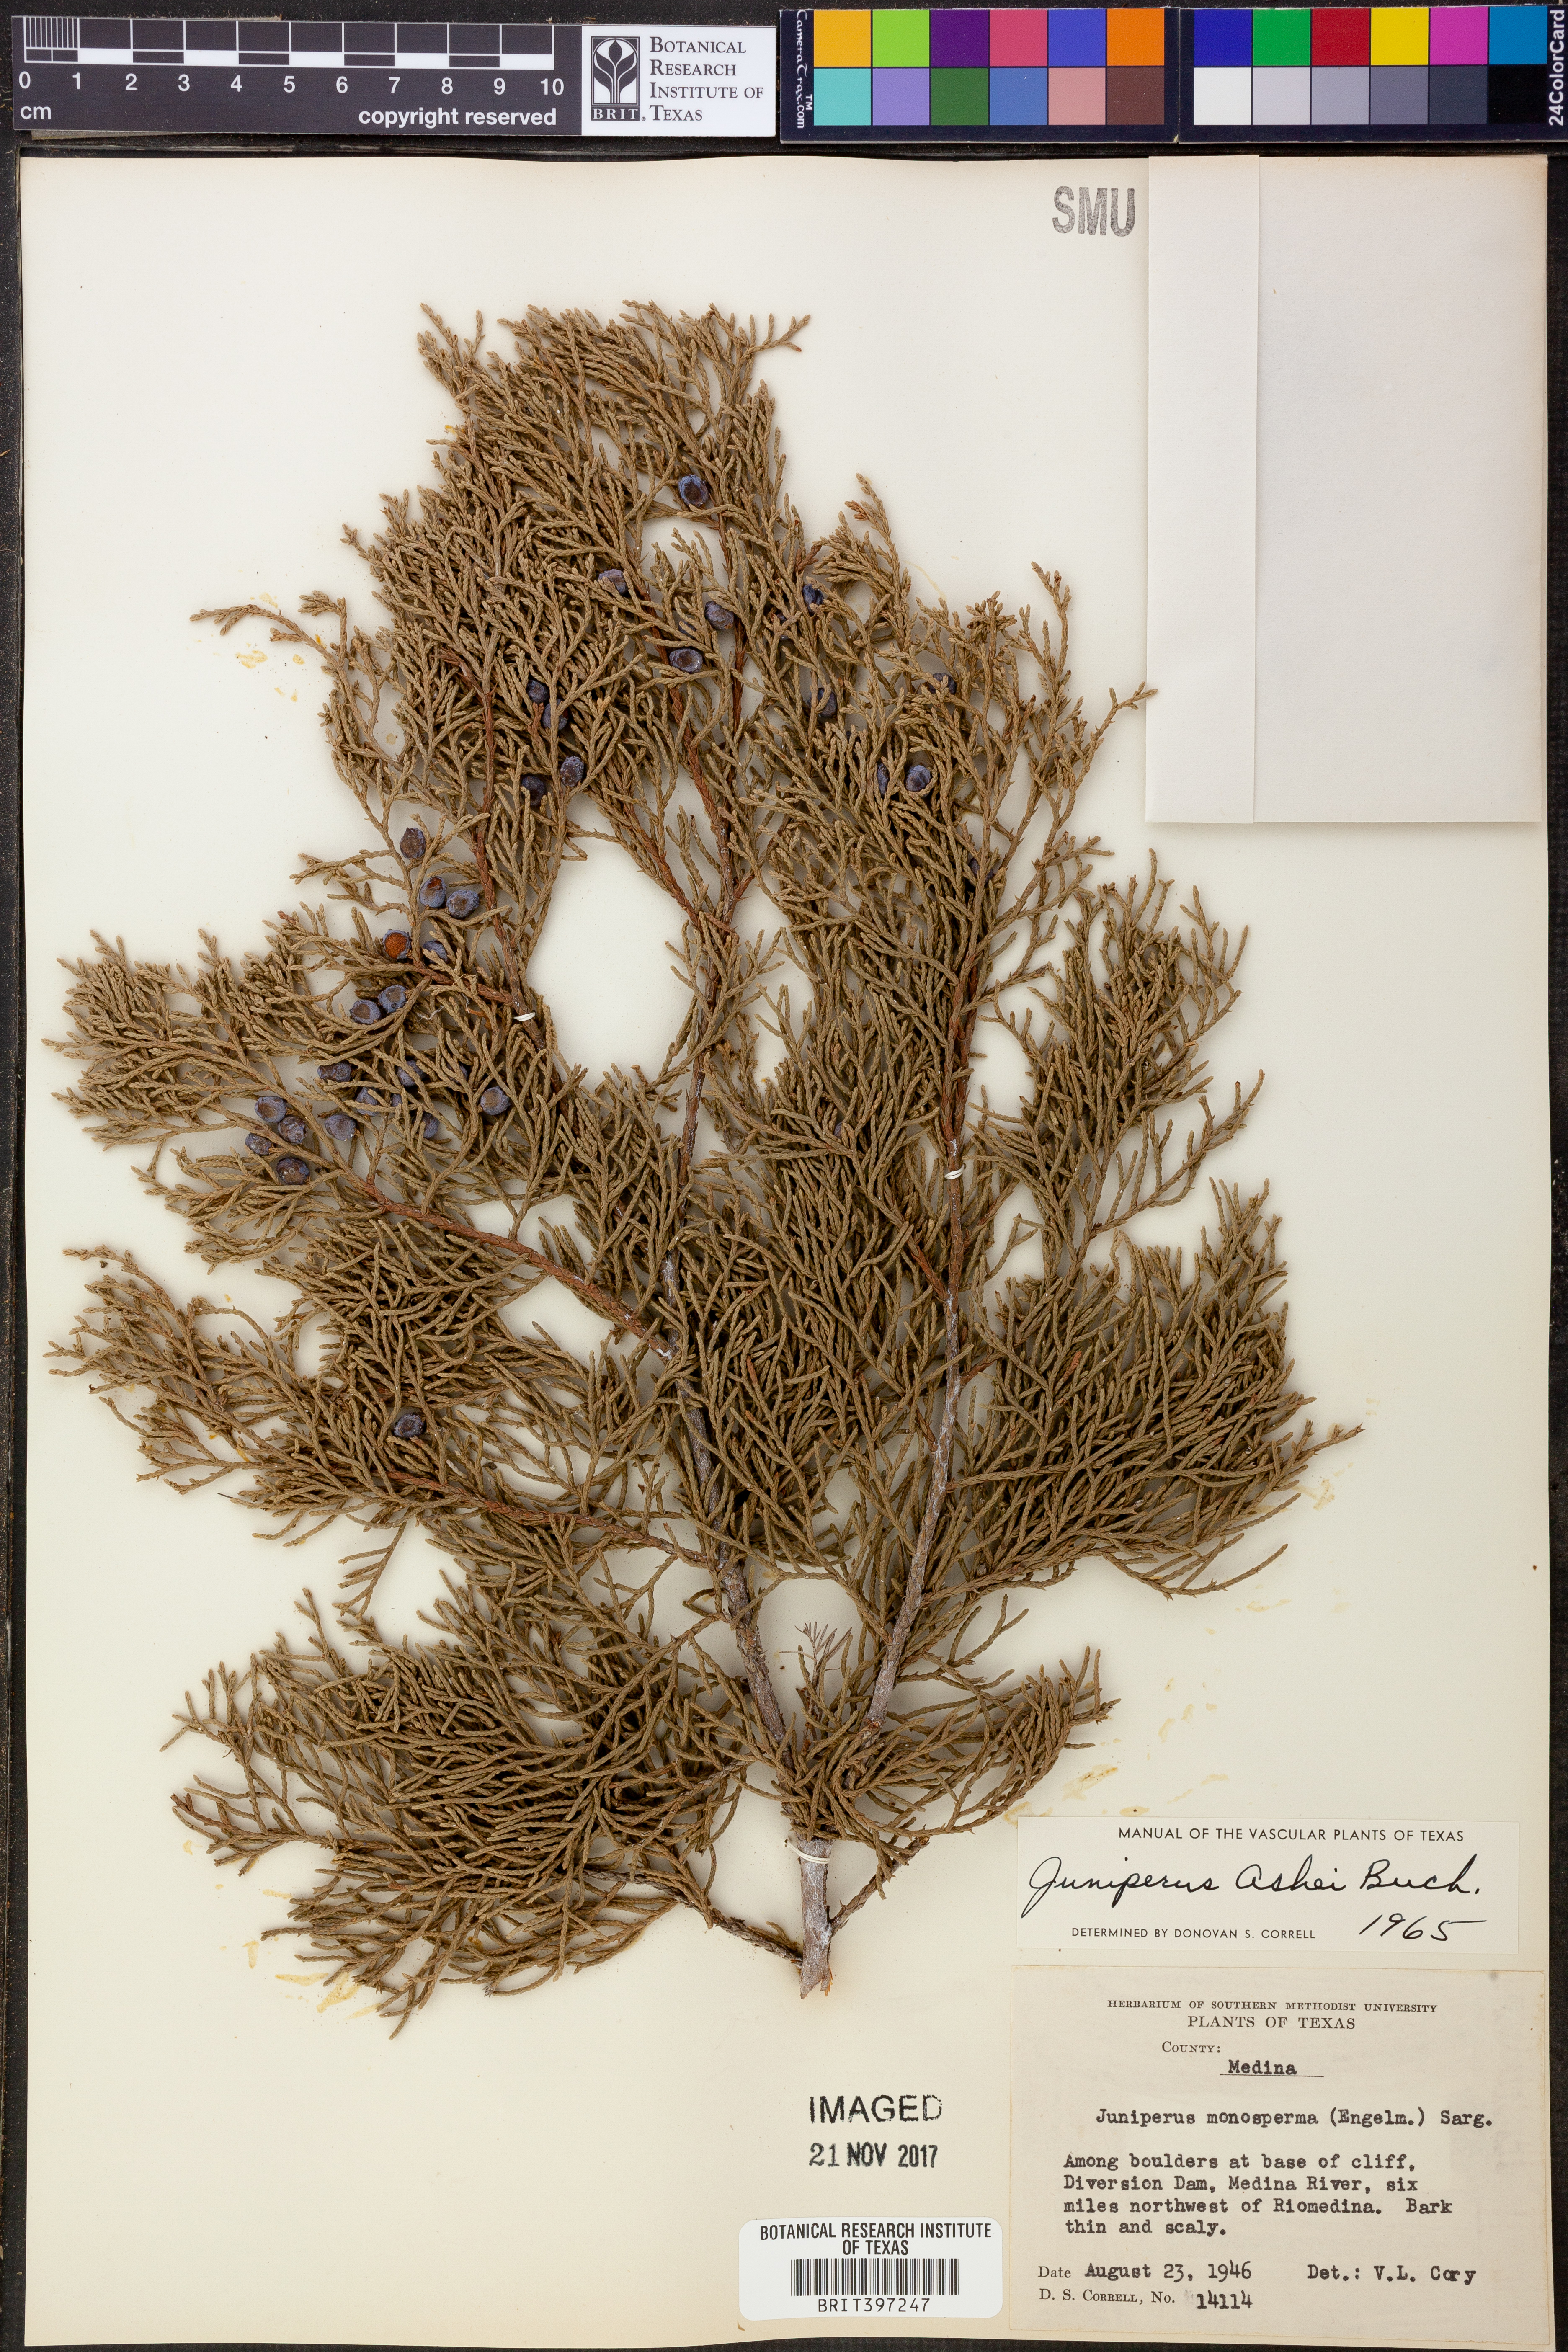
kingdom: Plantae
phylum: Tracheophyta
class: Pinopsida
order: Pinales
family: Cupressaceae
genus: Juniperus
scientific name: Juniperus ashei
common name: Mexican juniper
